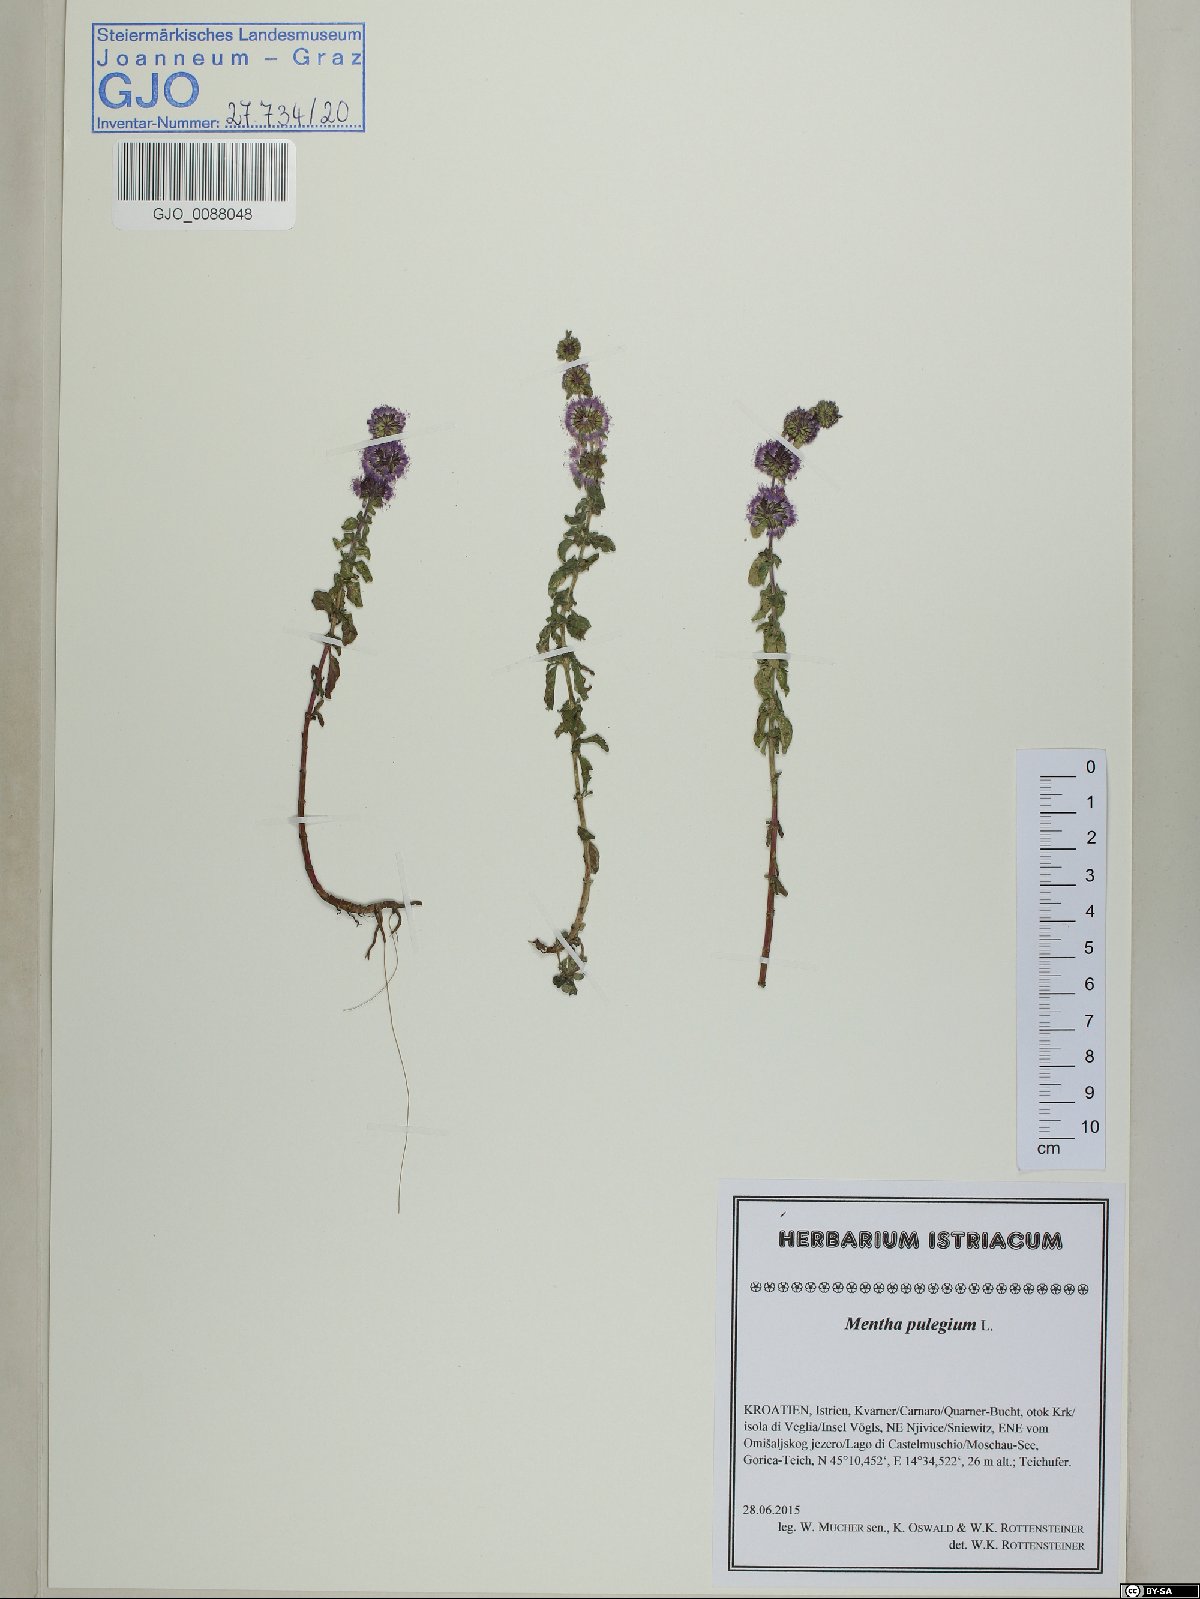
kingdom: Plantae
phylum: Tracheophyta
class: Magnoliopsida
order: Lamiales
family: Lamiaceae
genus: Mentha
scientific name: Mentha pulegium
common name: Pennyroyal
